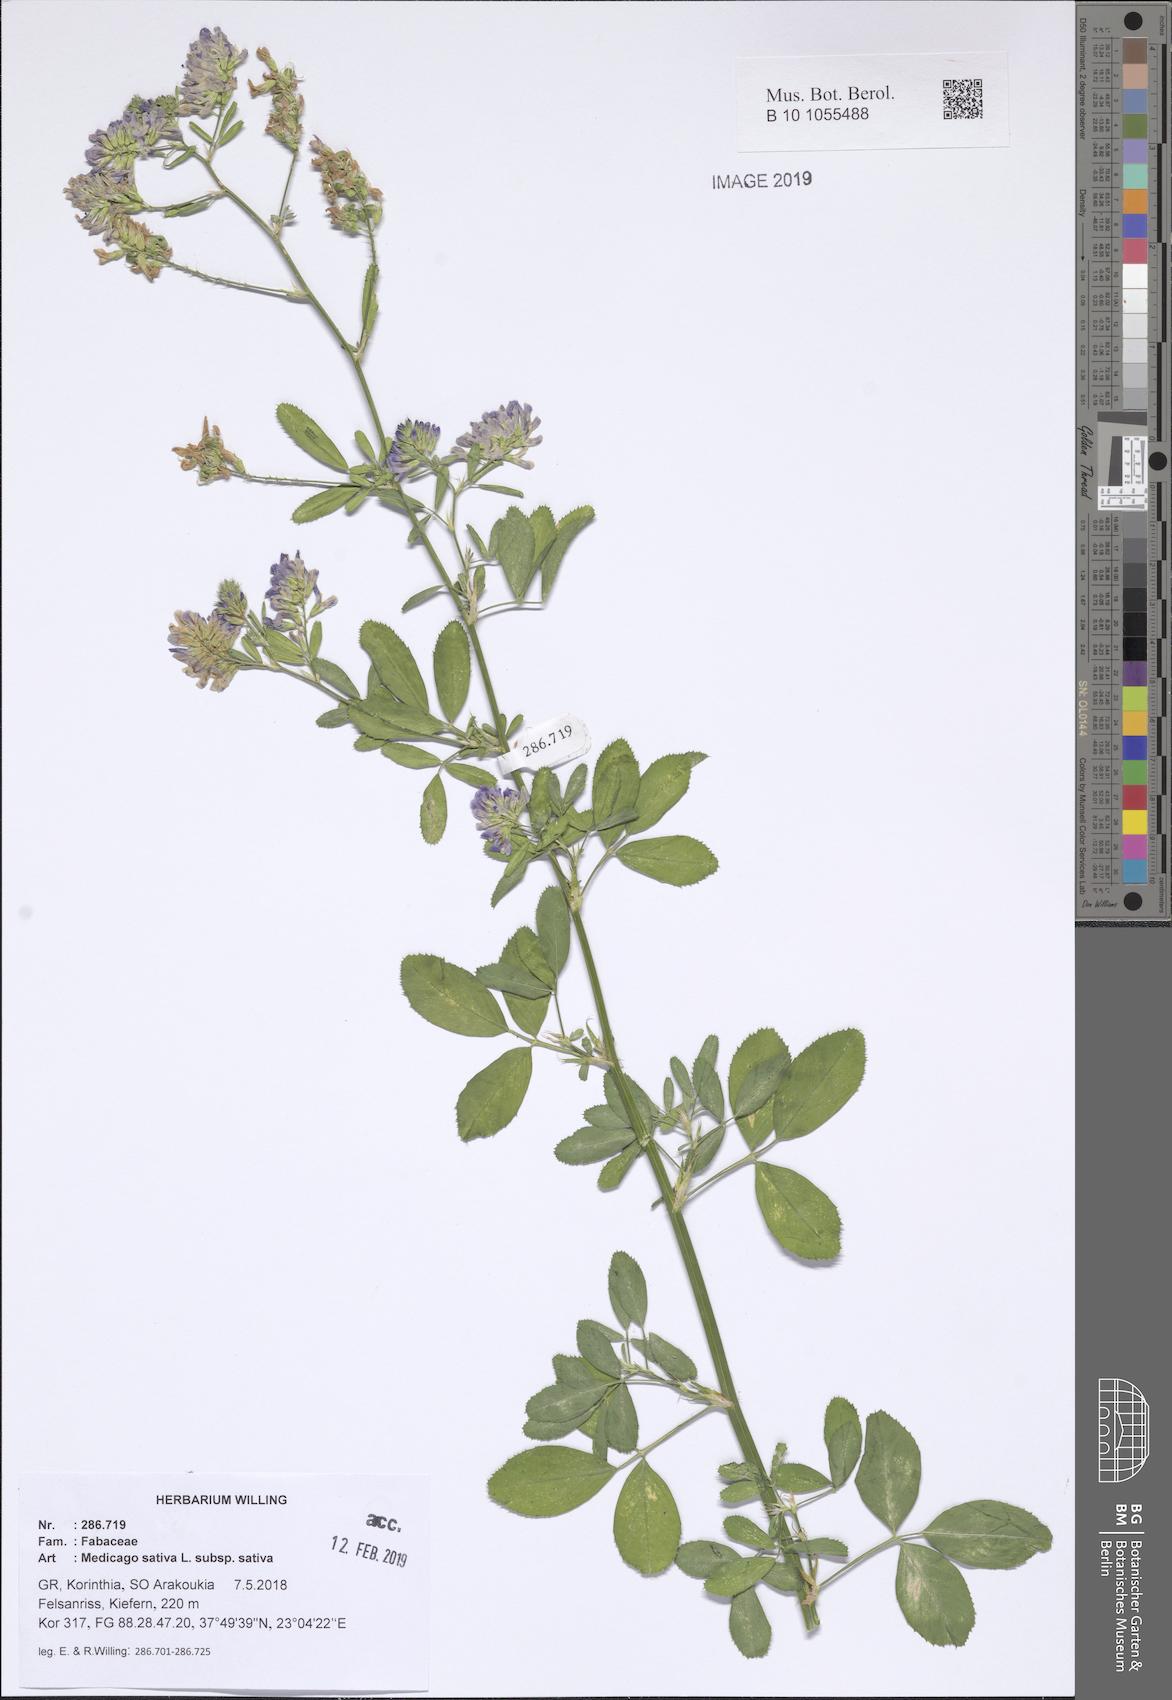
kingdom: Plantae
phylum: Tracheophyta
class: Magnoliopsida
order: Fabales
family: Fabaceae
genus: Medicago
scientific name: Medicago sativa
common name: Alfalfa
